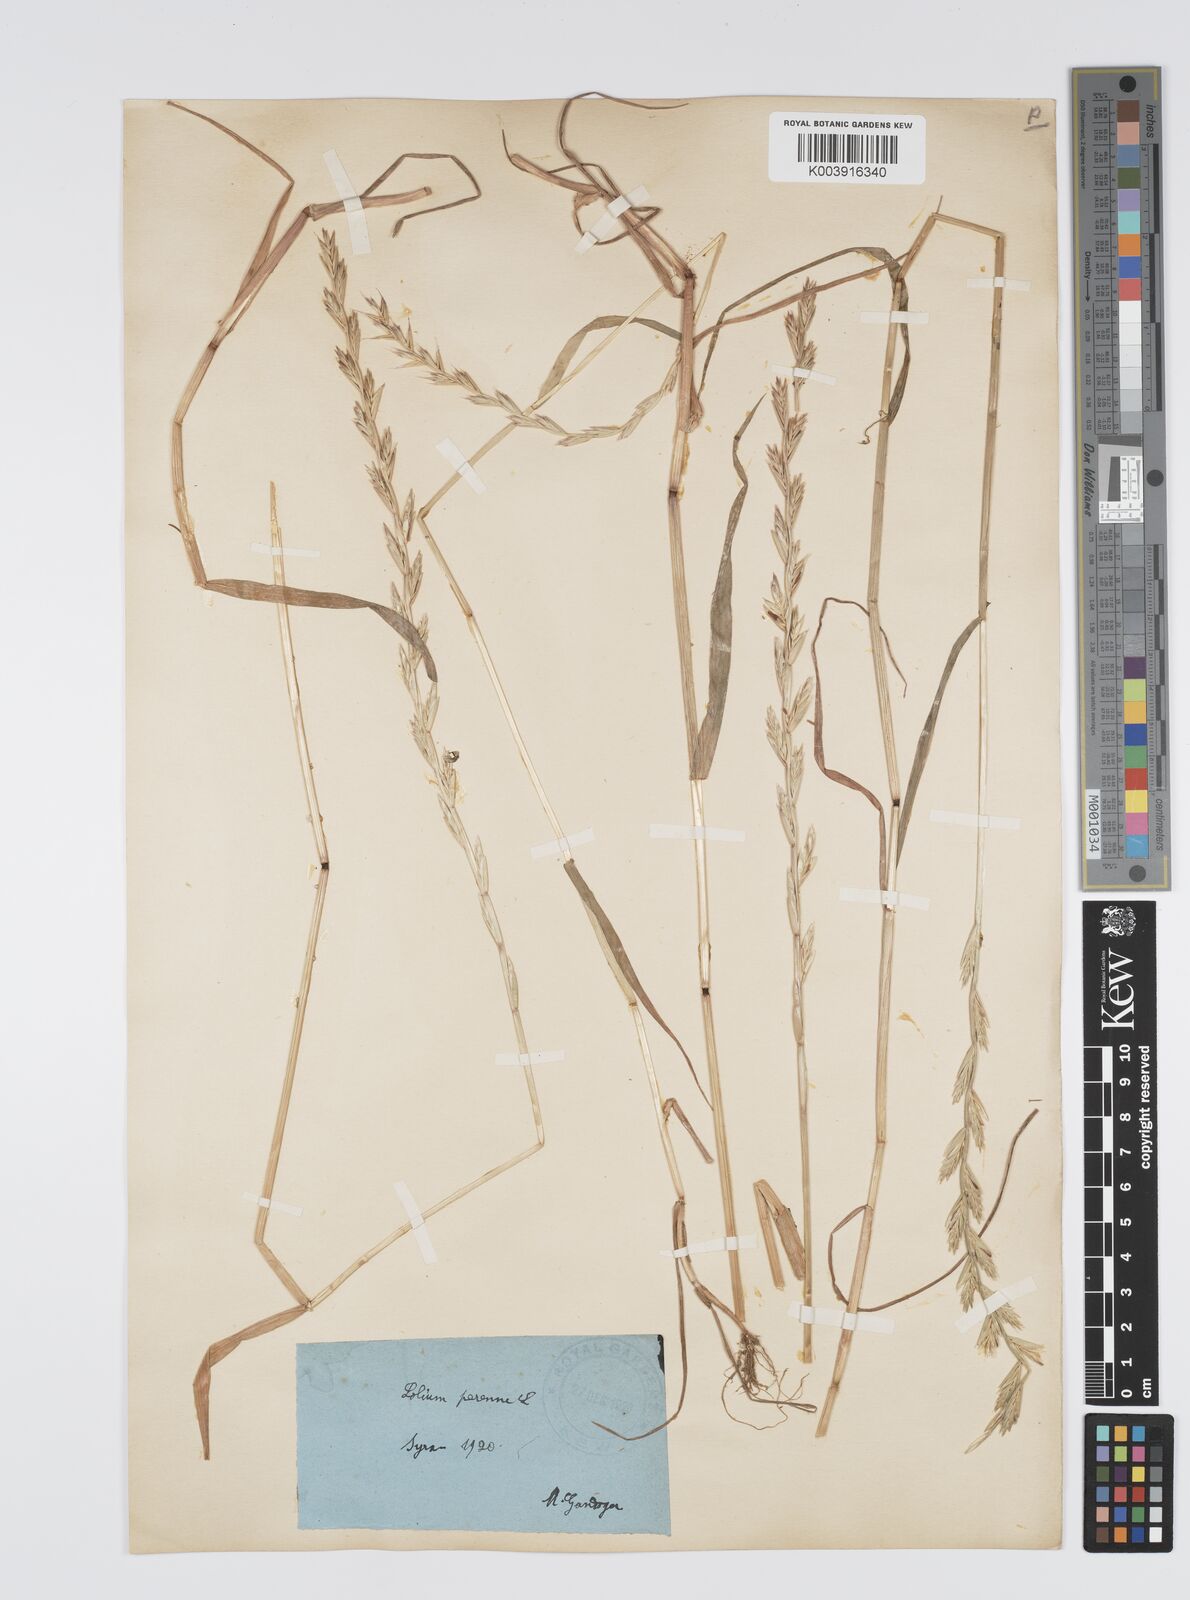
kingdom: Plantae
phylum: Tracheophyta
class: Liliopsida
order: Poales
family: Poaceae
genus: Lolium
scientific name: Lolium rigidum
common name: Wimmera ryegrass
